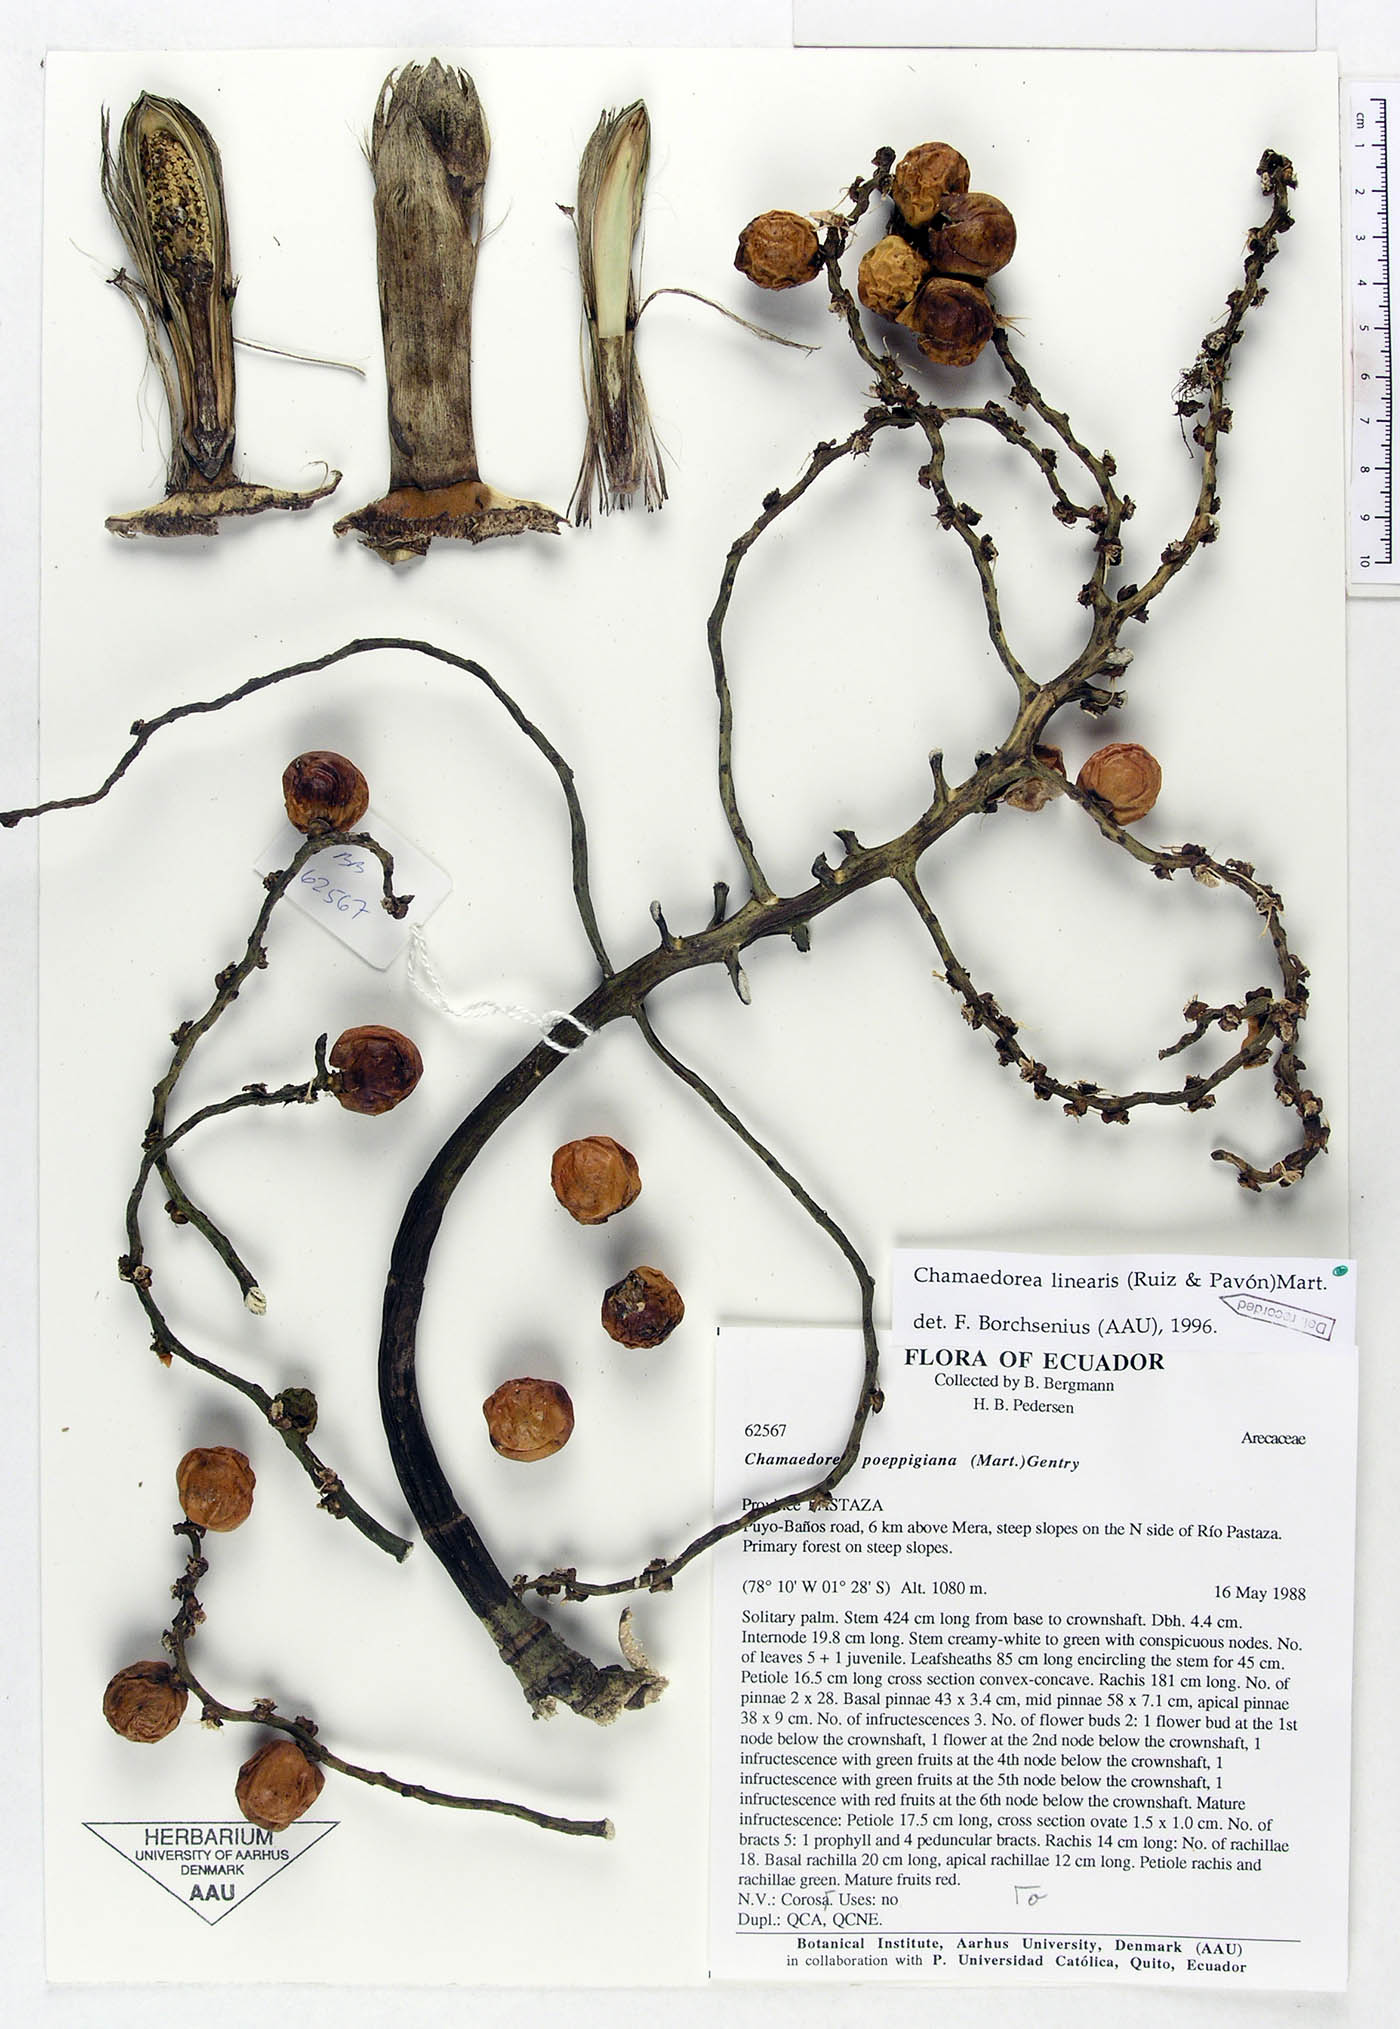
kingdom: Plantae
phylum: Tracheophyta
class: Liliopsida
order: Arecales
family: Arecaceae
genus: Chamaedorea
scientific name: Chamaedorea linearis
